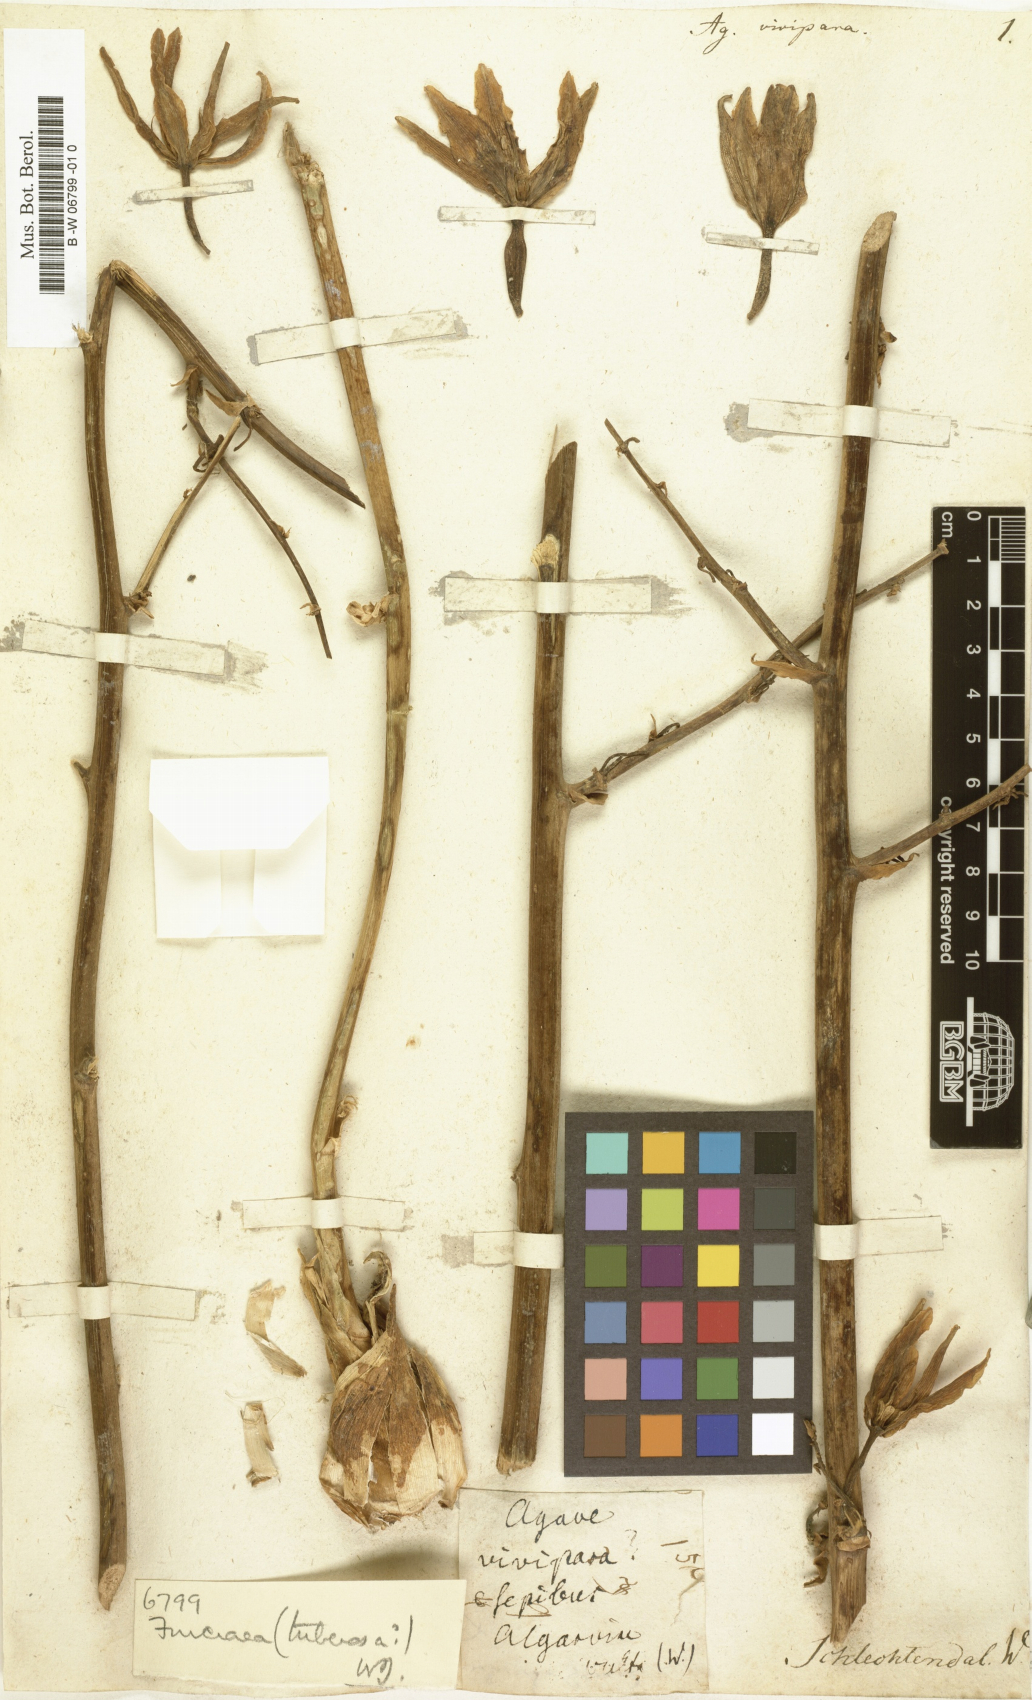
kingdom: Plantae
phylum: Tracheophyta
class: Liliopsida
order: Asparagales
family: Asparagaceae
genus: Agave
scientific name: Agave vivipara
